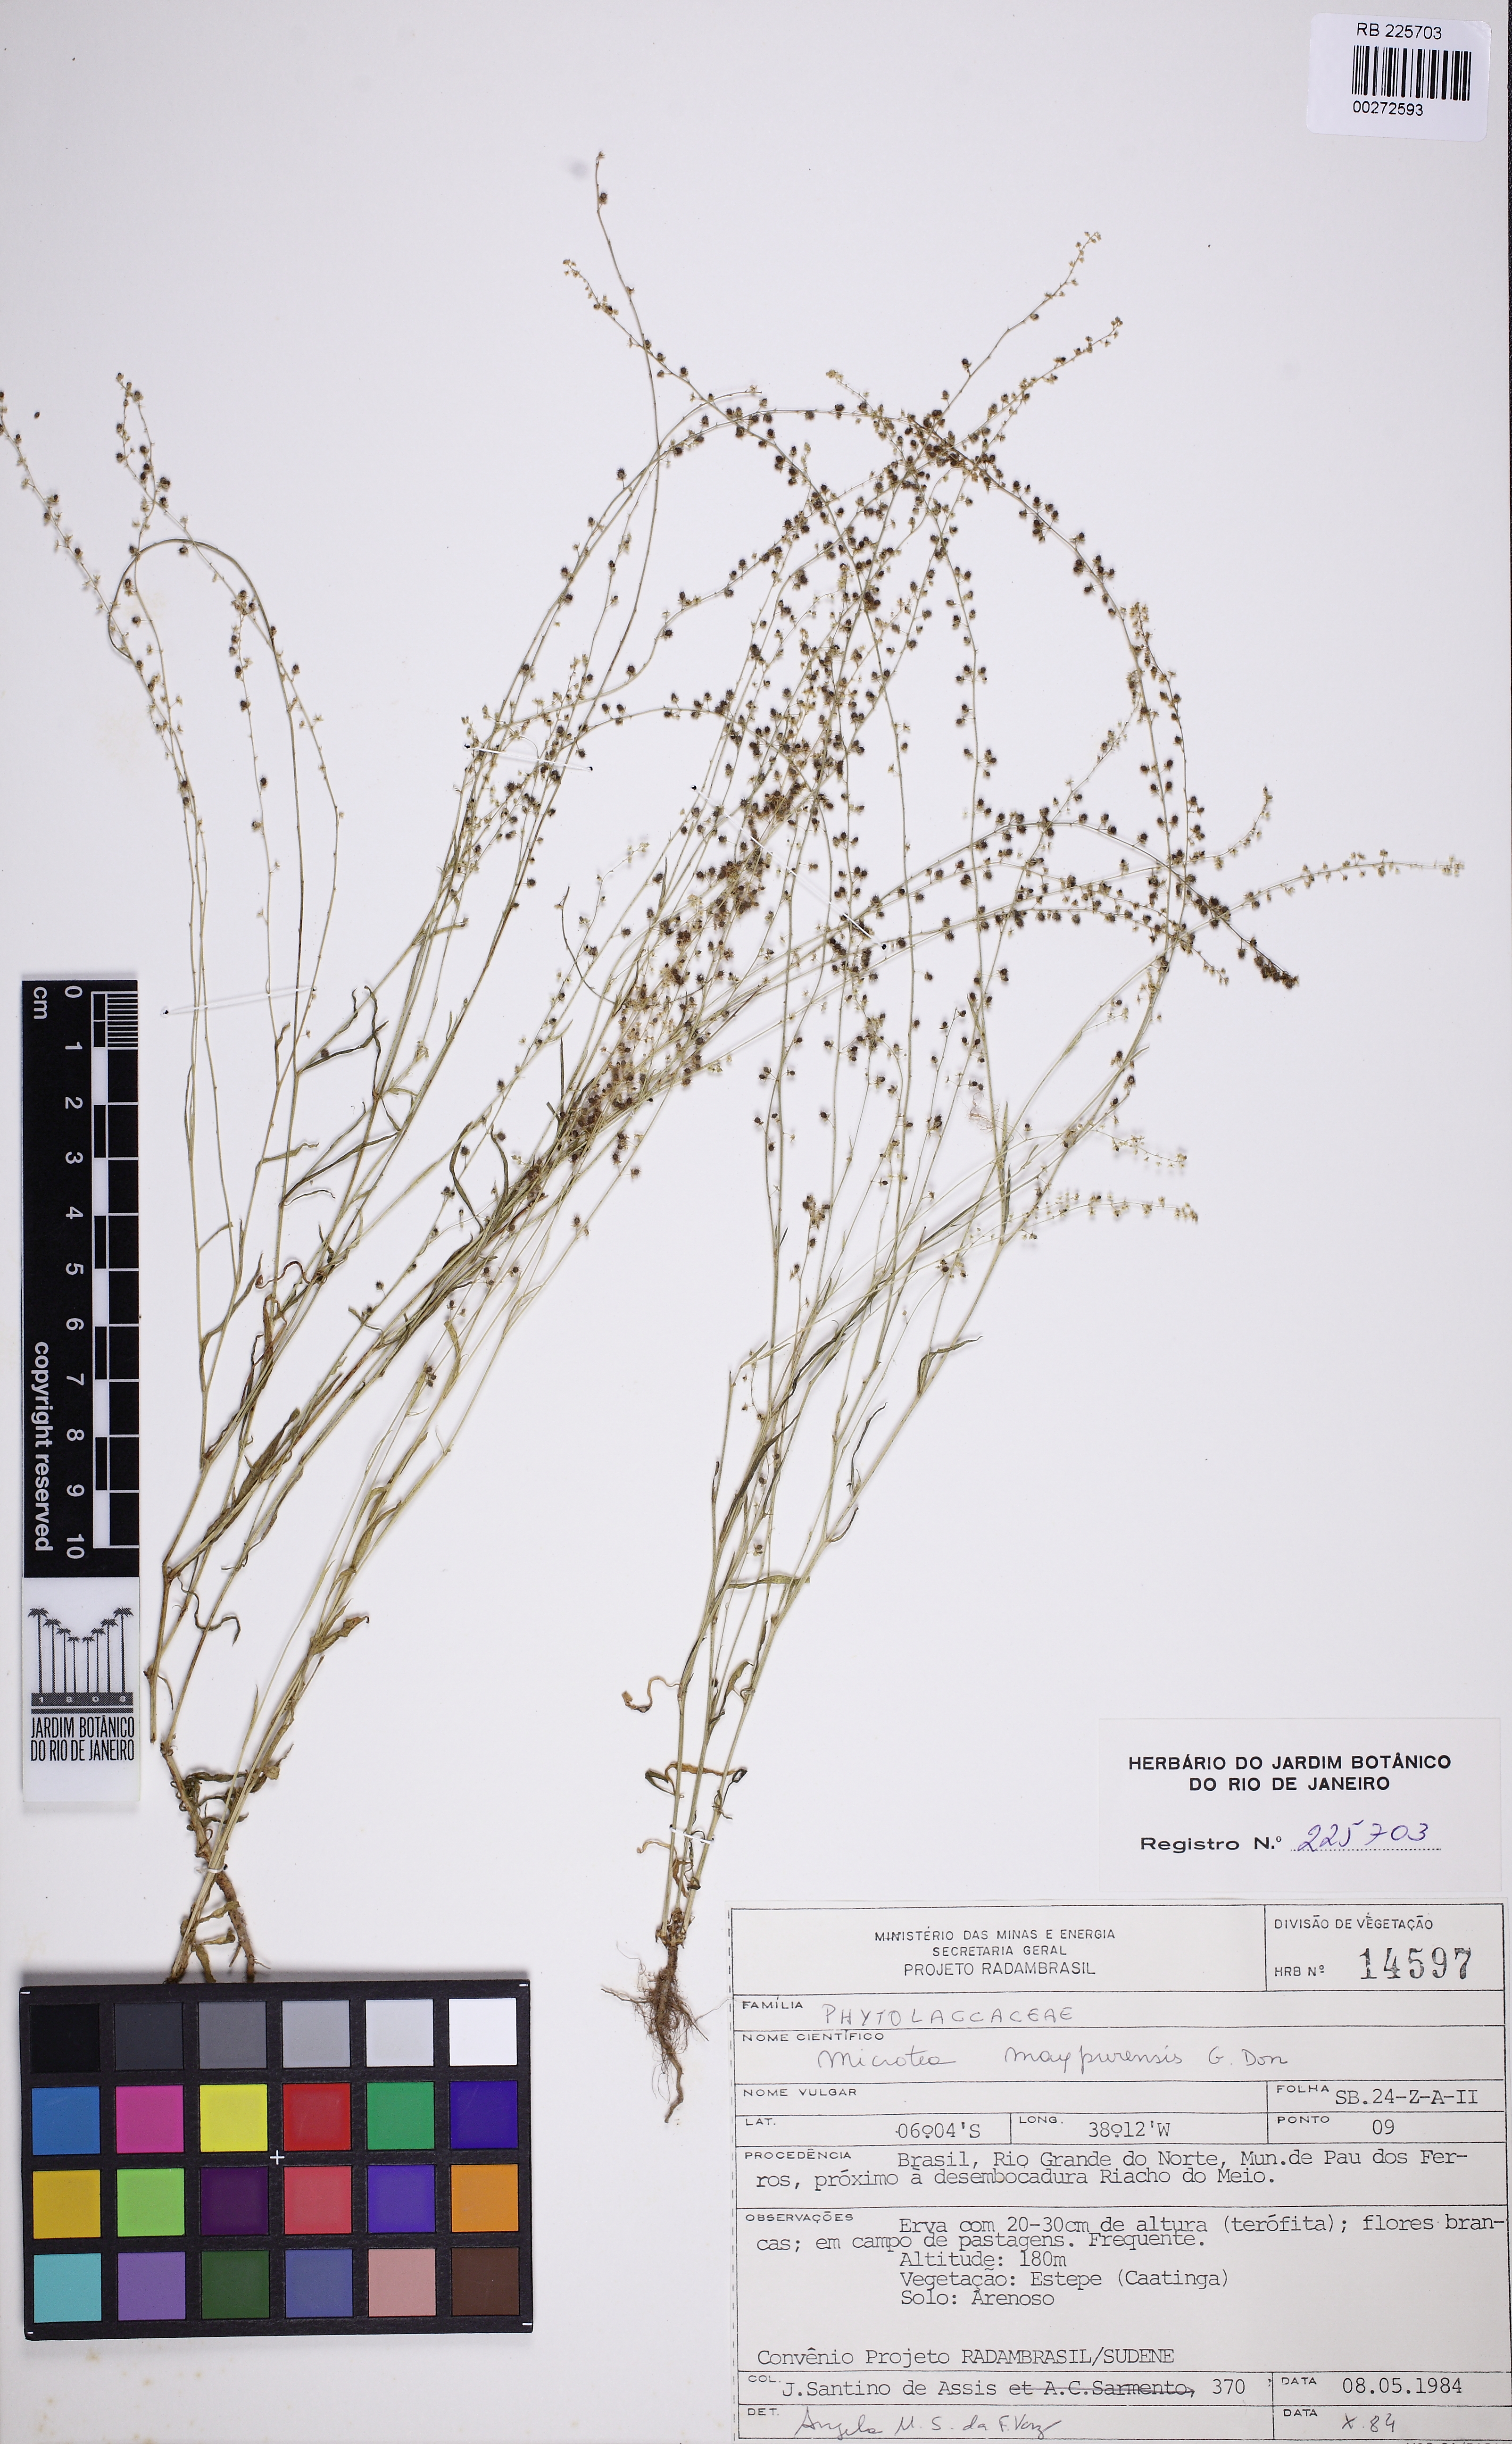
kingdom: Plantae
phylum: Tracheophyta
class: Magnoliopsida
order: Caryophyllales
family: Microteaceae
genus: Microtea
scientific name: Microtea maypurensis
